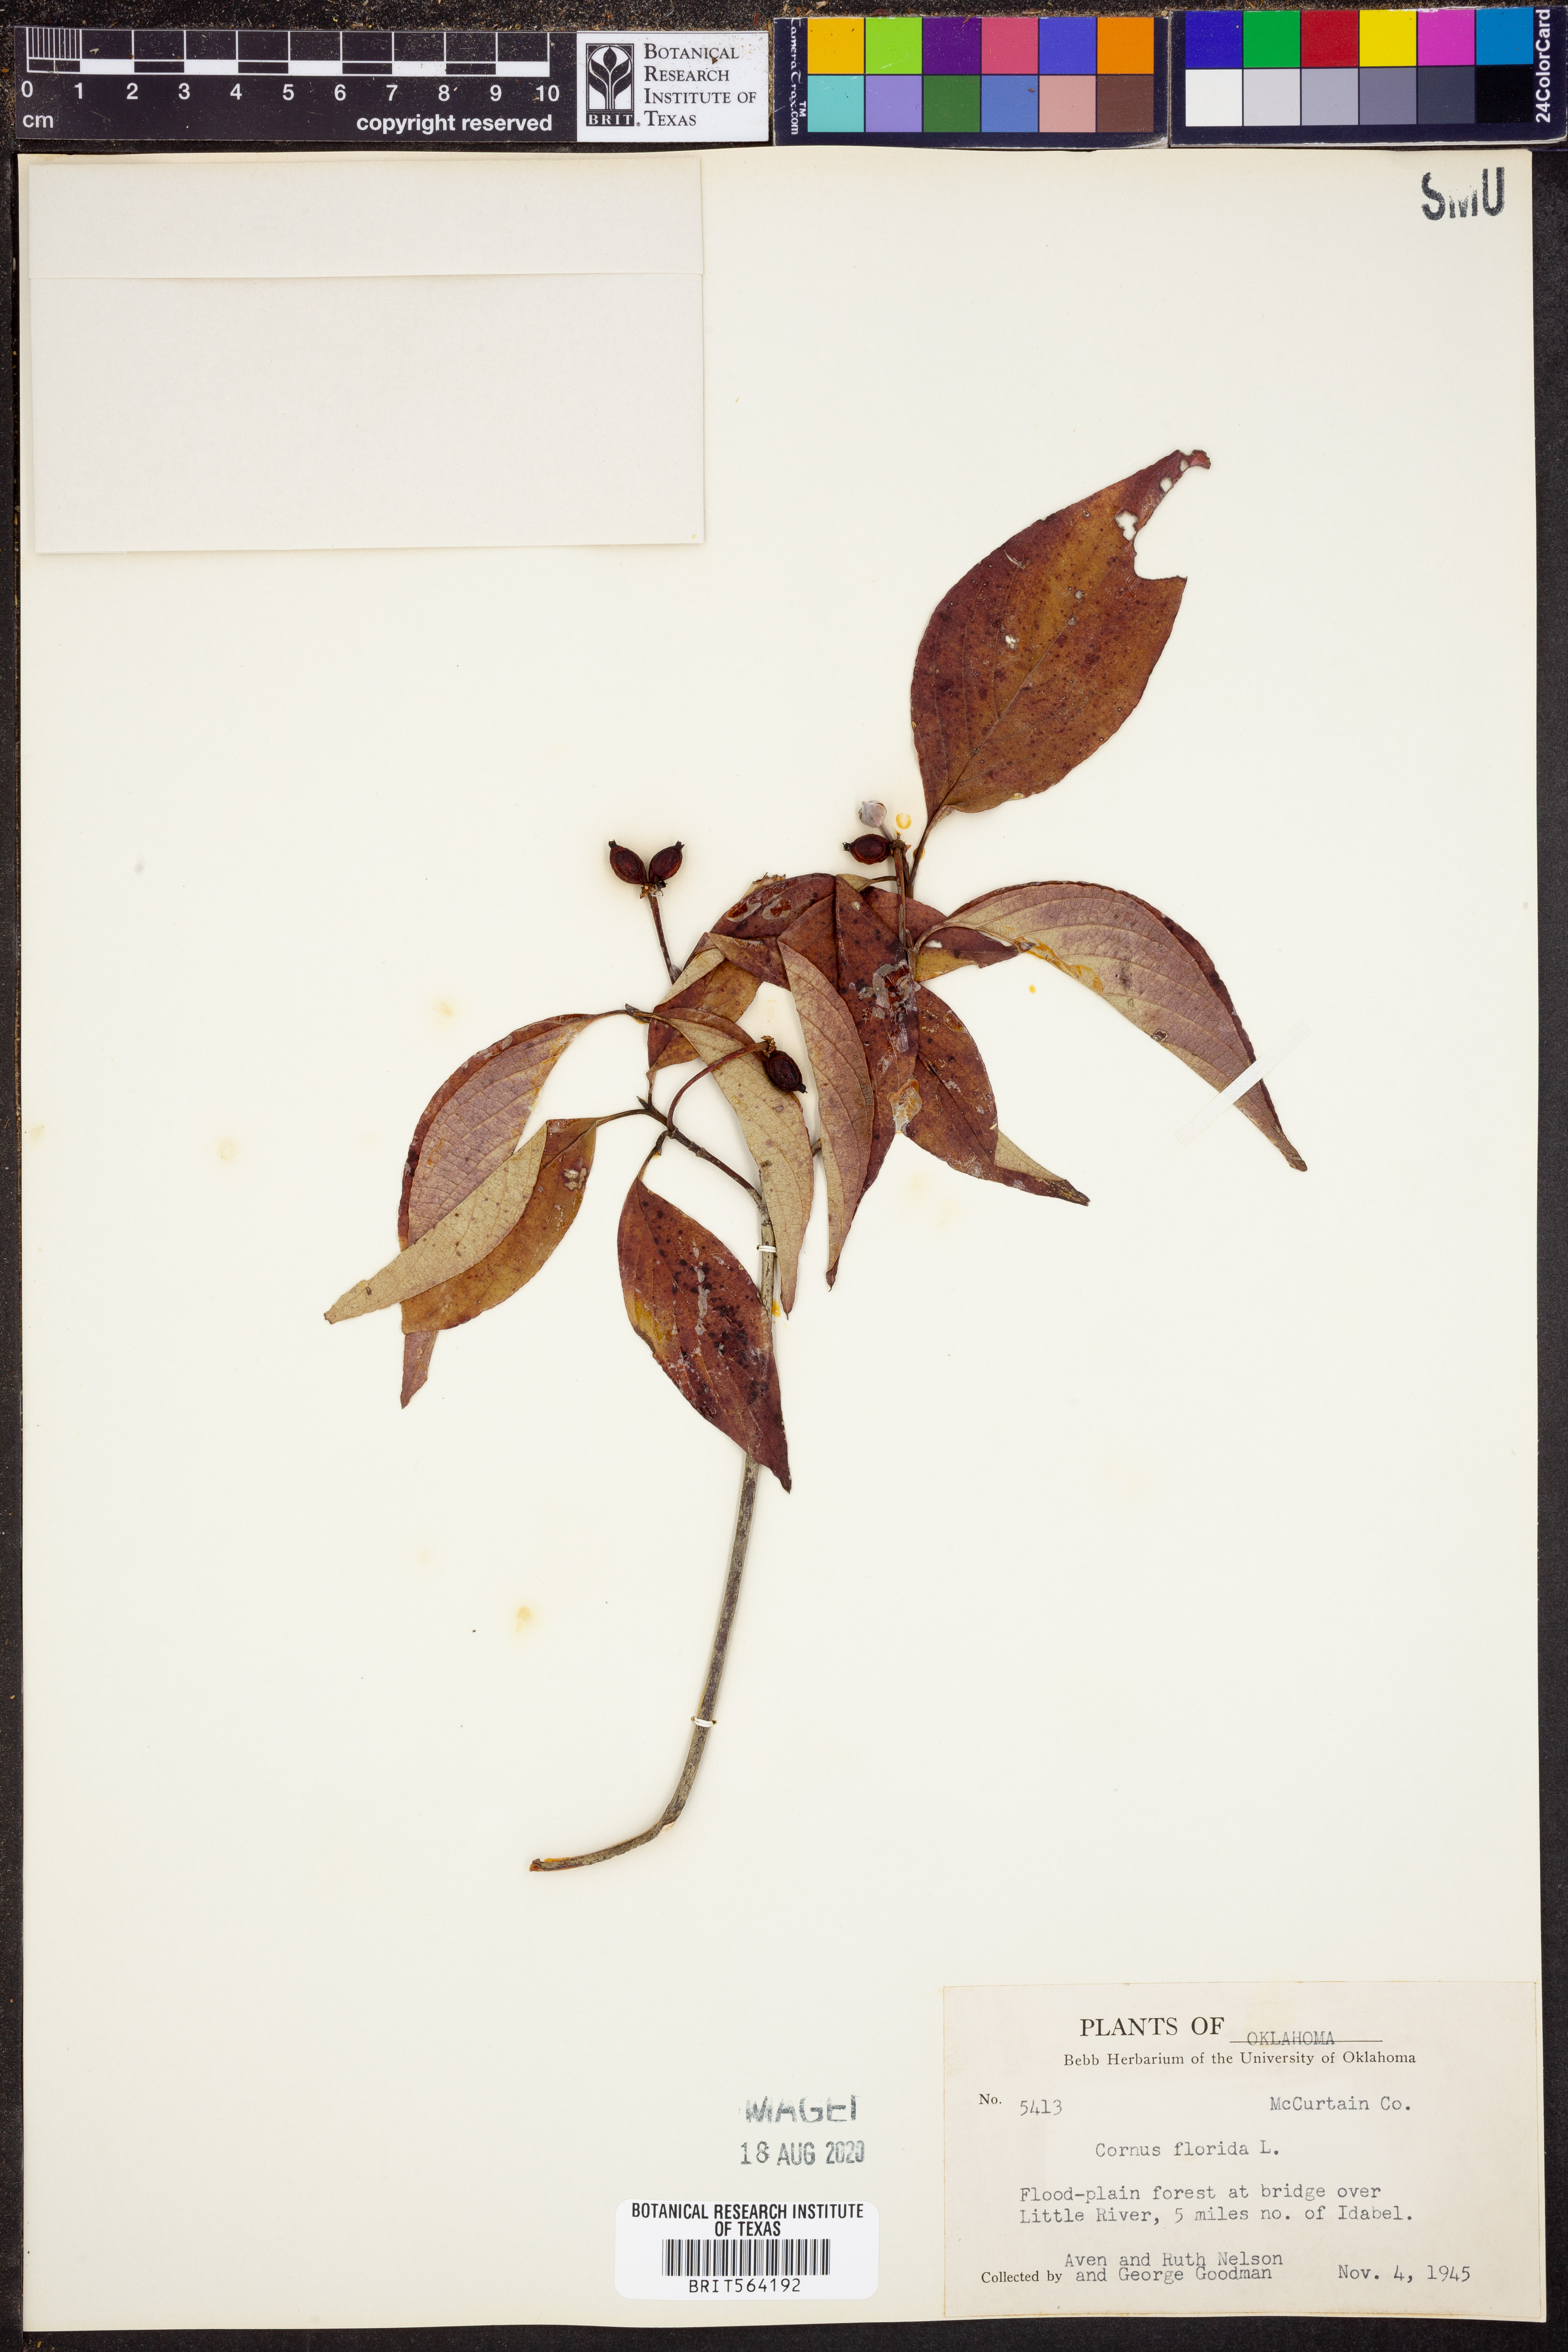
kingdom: Plantae
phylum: Tracheophyta
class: Magnoliopsida
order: Cornales
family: Cornaceae
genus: Cornus
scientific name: Cornus florida
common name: Flowering dogwood
